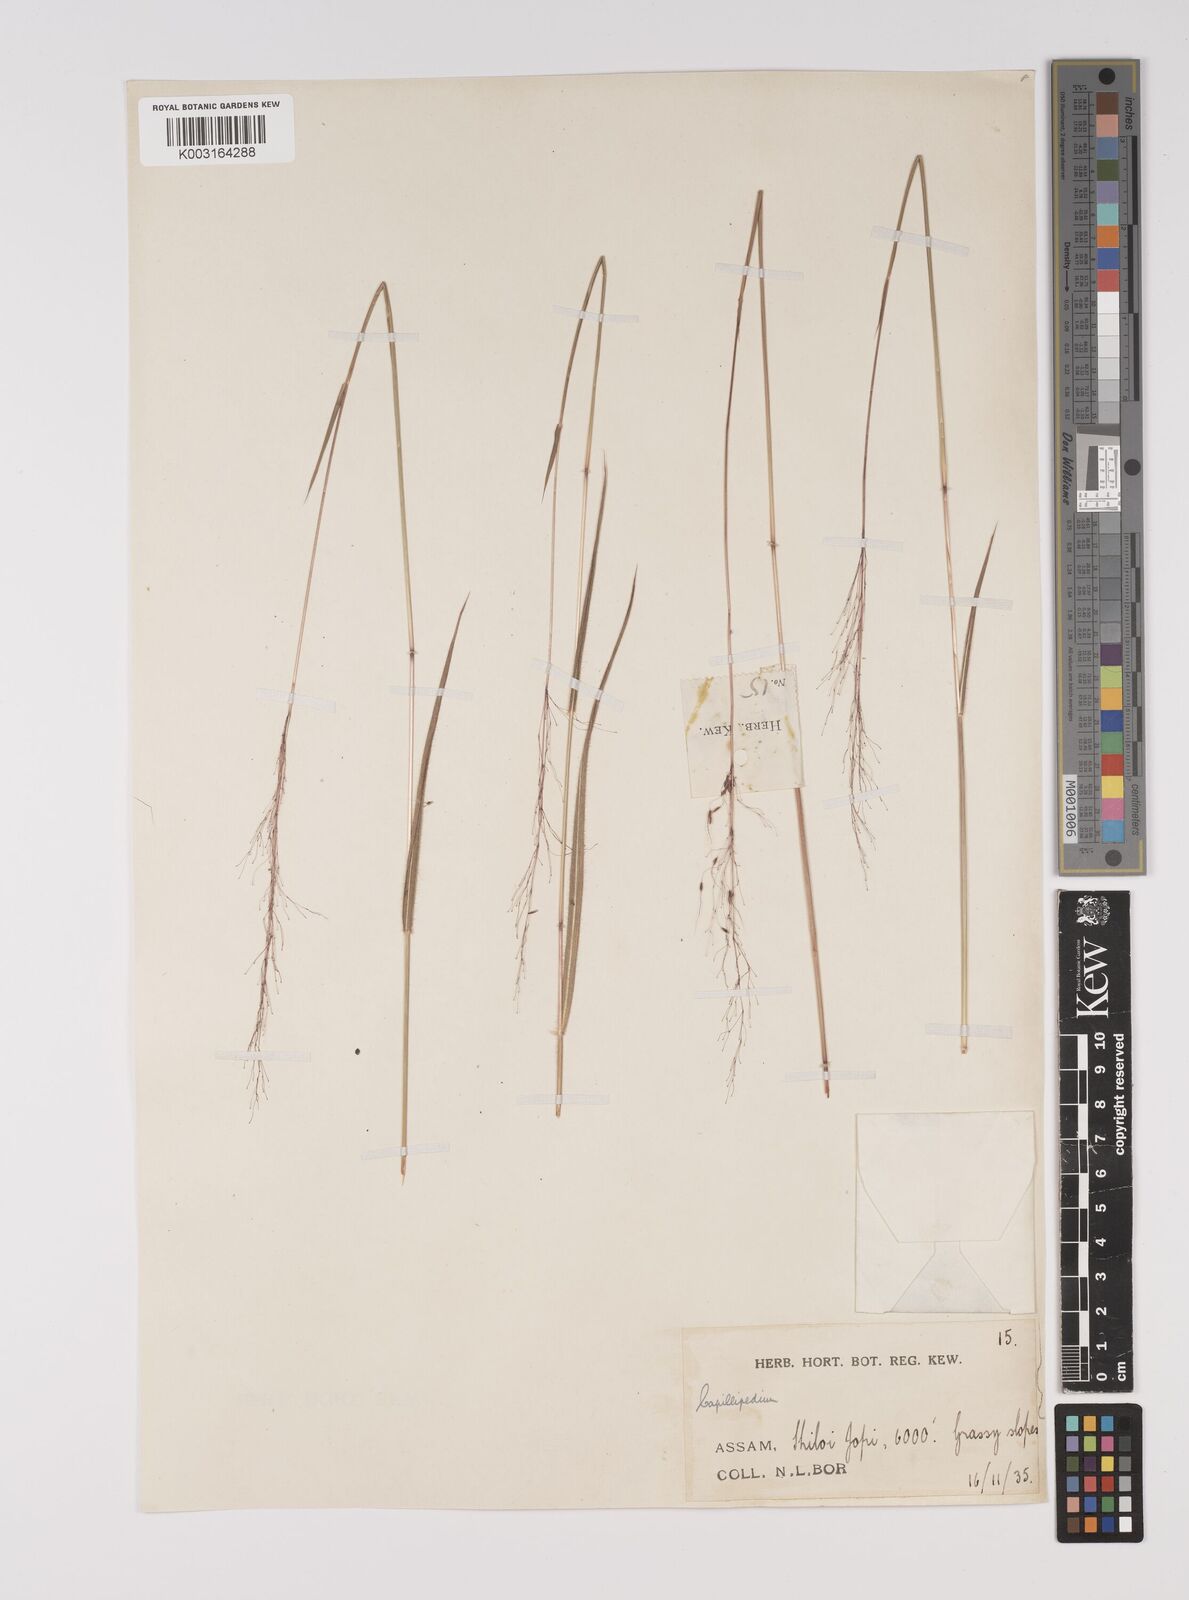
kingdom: Plantae
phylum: Tracheophyta
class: Liliopsida
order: Poales
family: Poaceae
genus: Capillipedium
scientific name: Capillipedium parviflorum
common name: Golden-beard
